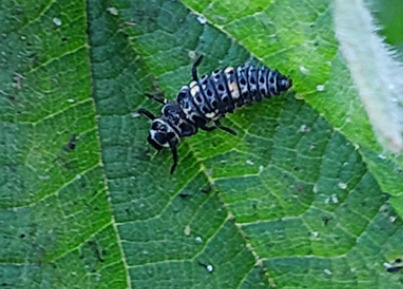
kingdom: Animalia
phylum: Arthropoda
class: Insecta
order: Coleoptera
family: Coccinellidae
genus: Coccinella
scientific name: Coccinella septempunctata
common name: Syvplettet mariehøne
